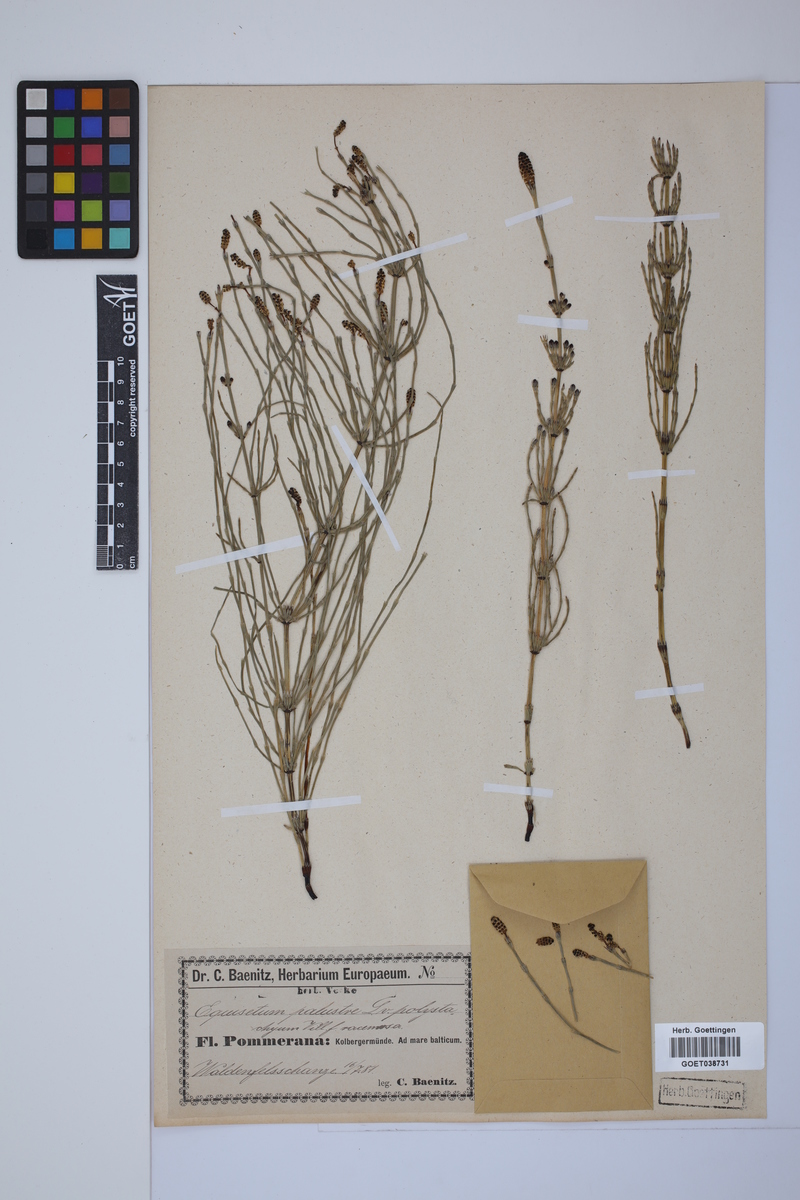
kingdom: Plantae
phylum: Tracheophyta
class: Polypodiopsida
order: Equisetales
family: Equisetaceae
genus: Equisetum
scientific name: Equisetum palustre
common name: Marsh horsetail
